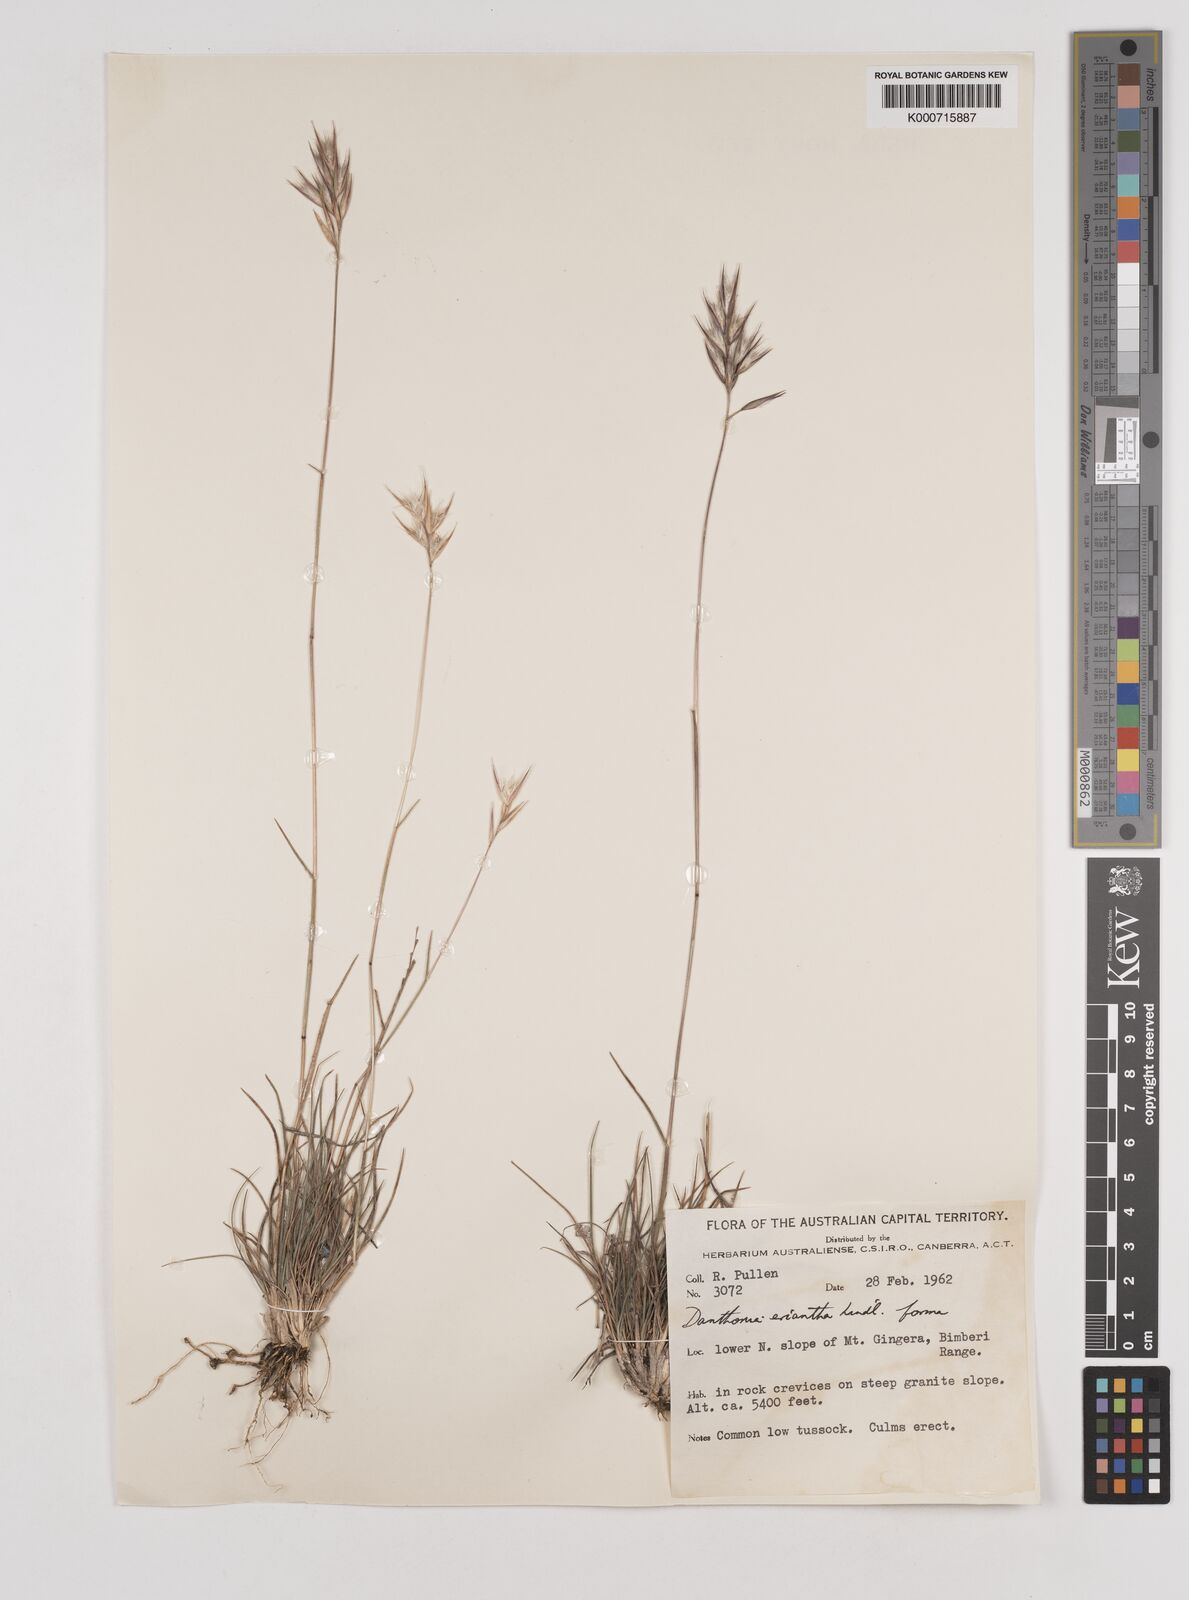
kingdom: Plantae
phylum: Tracheophyta
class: Liliopsida
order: Poales
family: Poaceae
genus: Rytidosperma
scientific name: Rytidosperma erianthum
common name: Hill wallaby grass
